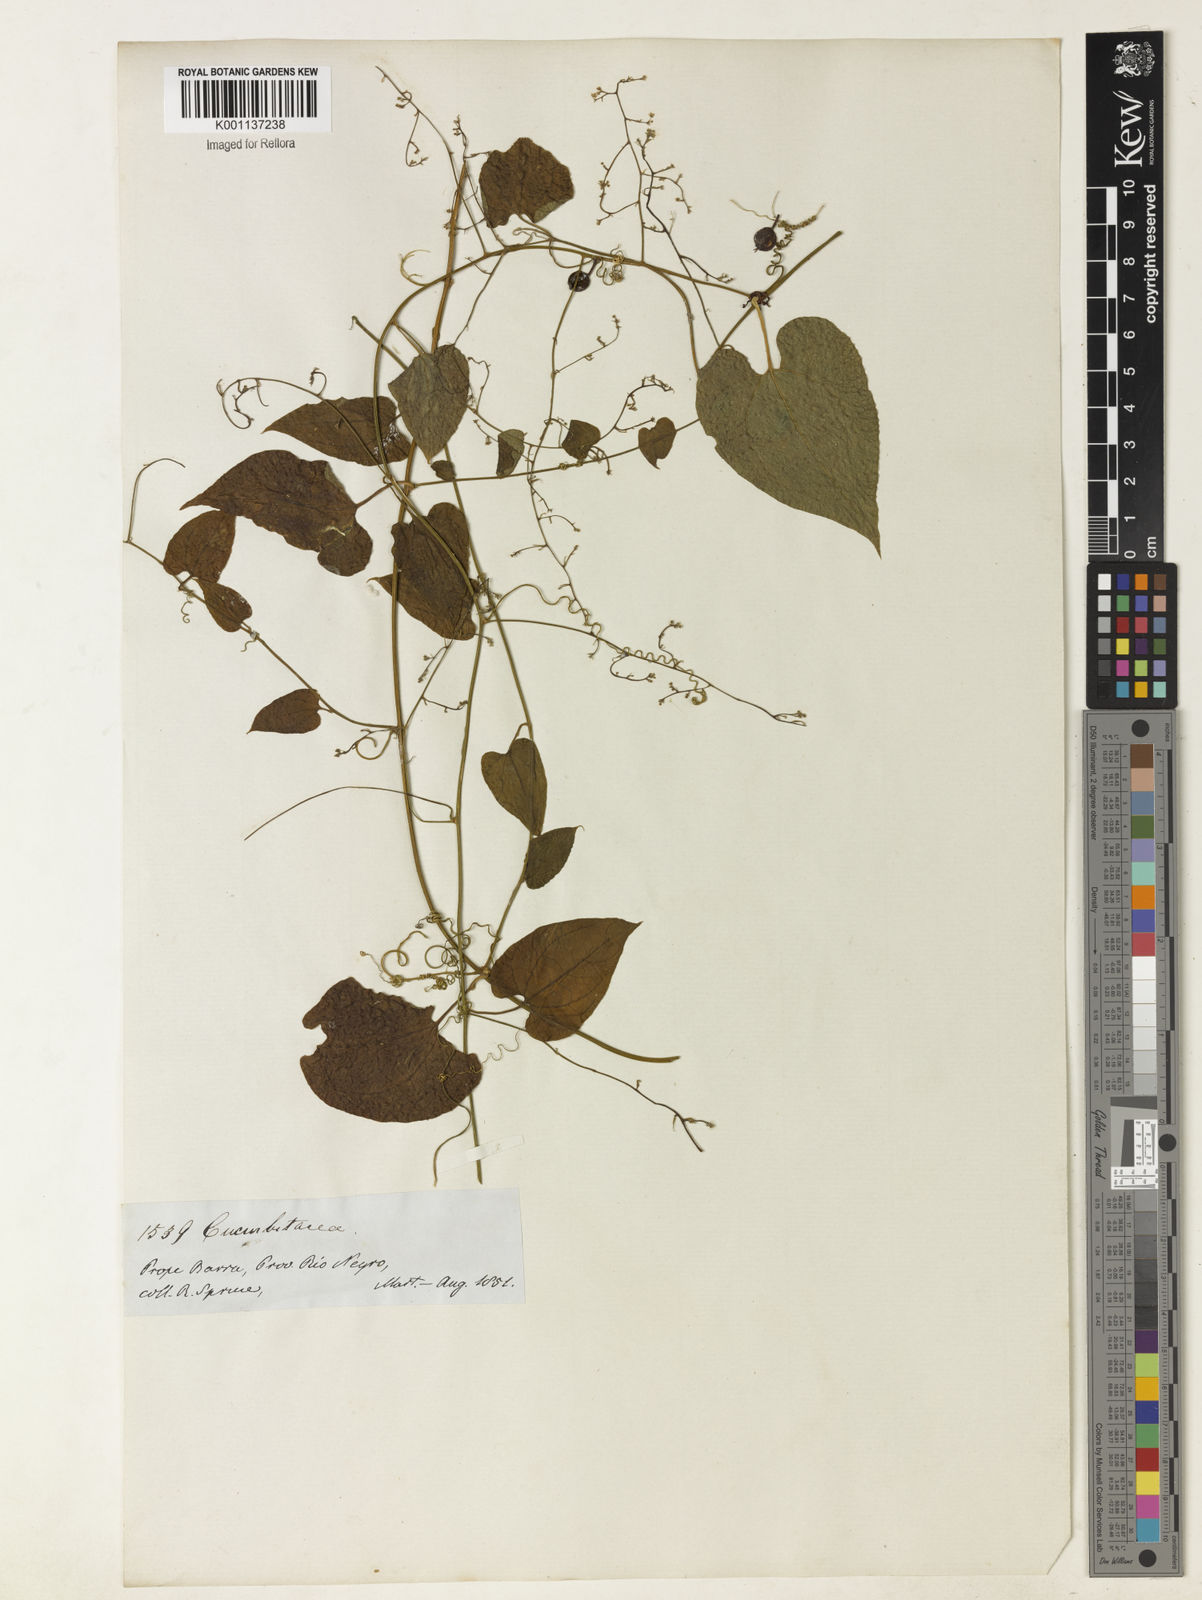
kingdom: Plantae
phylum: Tracheophyta
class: Magnoliopsida
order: Cucurbitales
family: Cucurbitaceae
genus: Sicydium
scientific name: Sicydium diffusum
